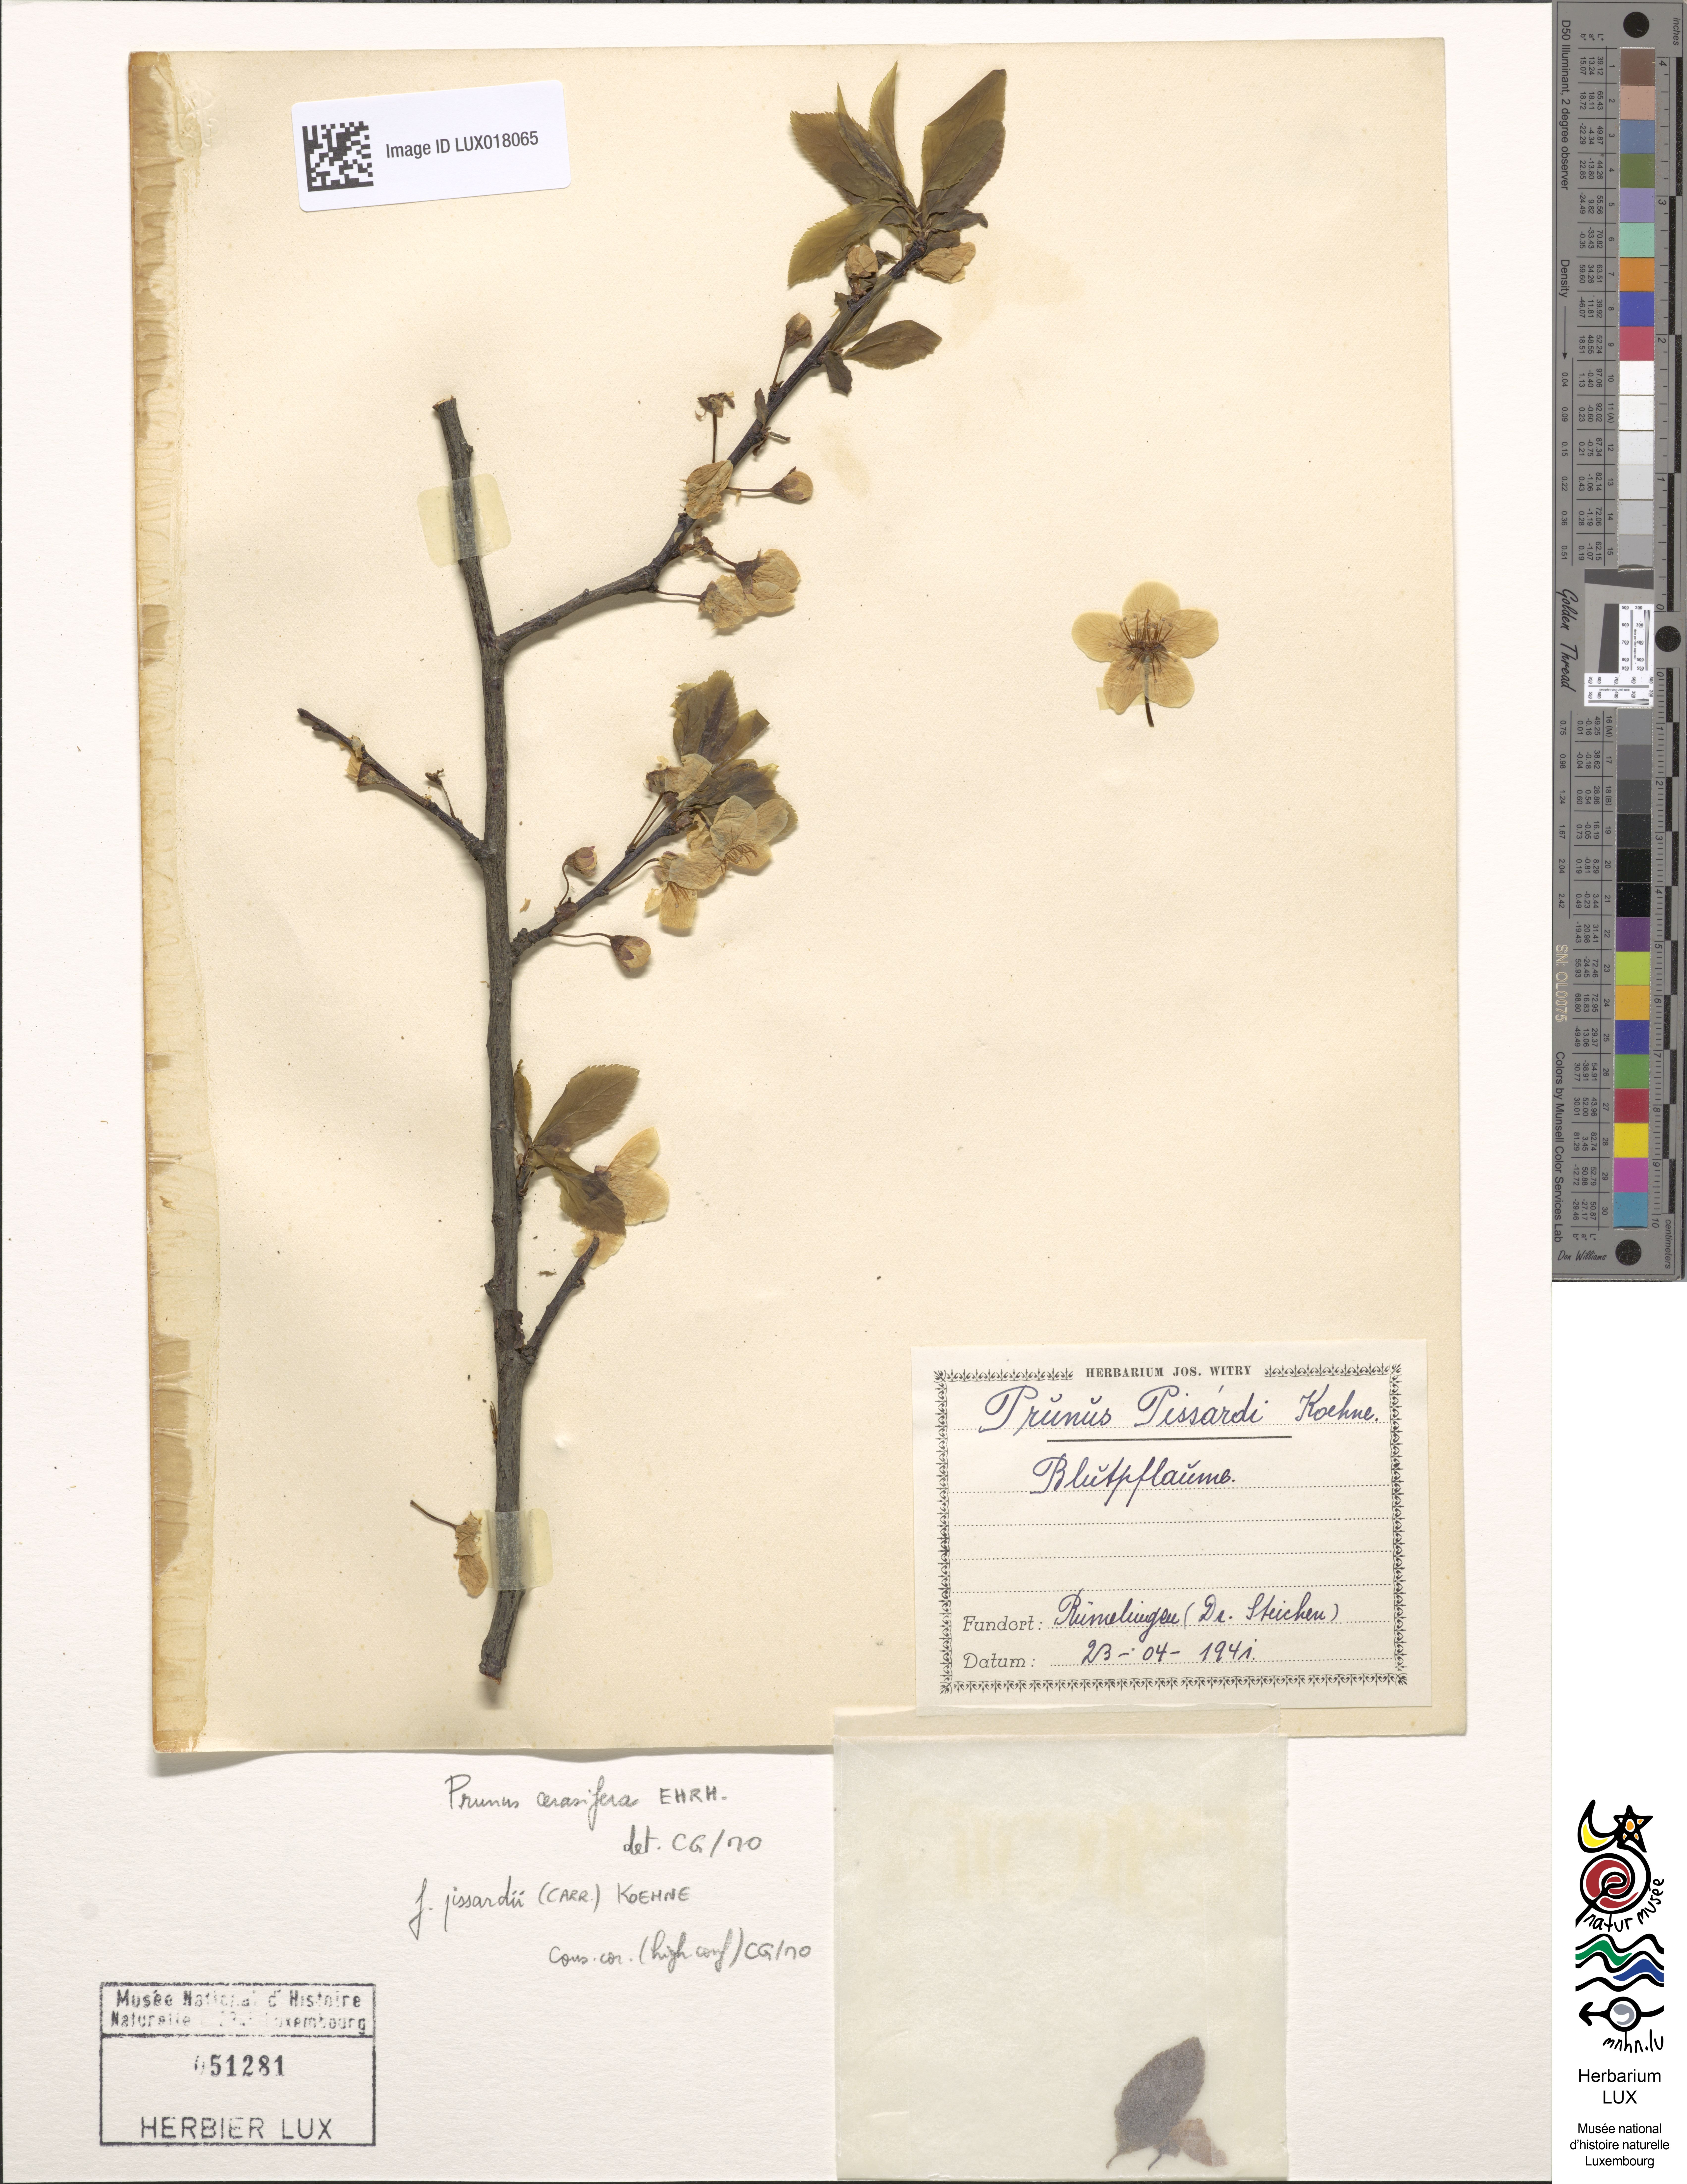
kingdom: Plantae
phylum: Tracheophyta
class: Magnoliopsida
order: Rosales
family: Rosaceae
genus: Prunus
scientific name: Prunus cerasifera
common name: Cherry plum
